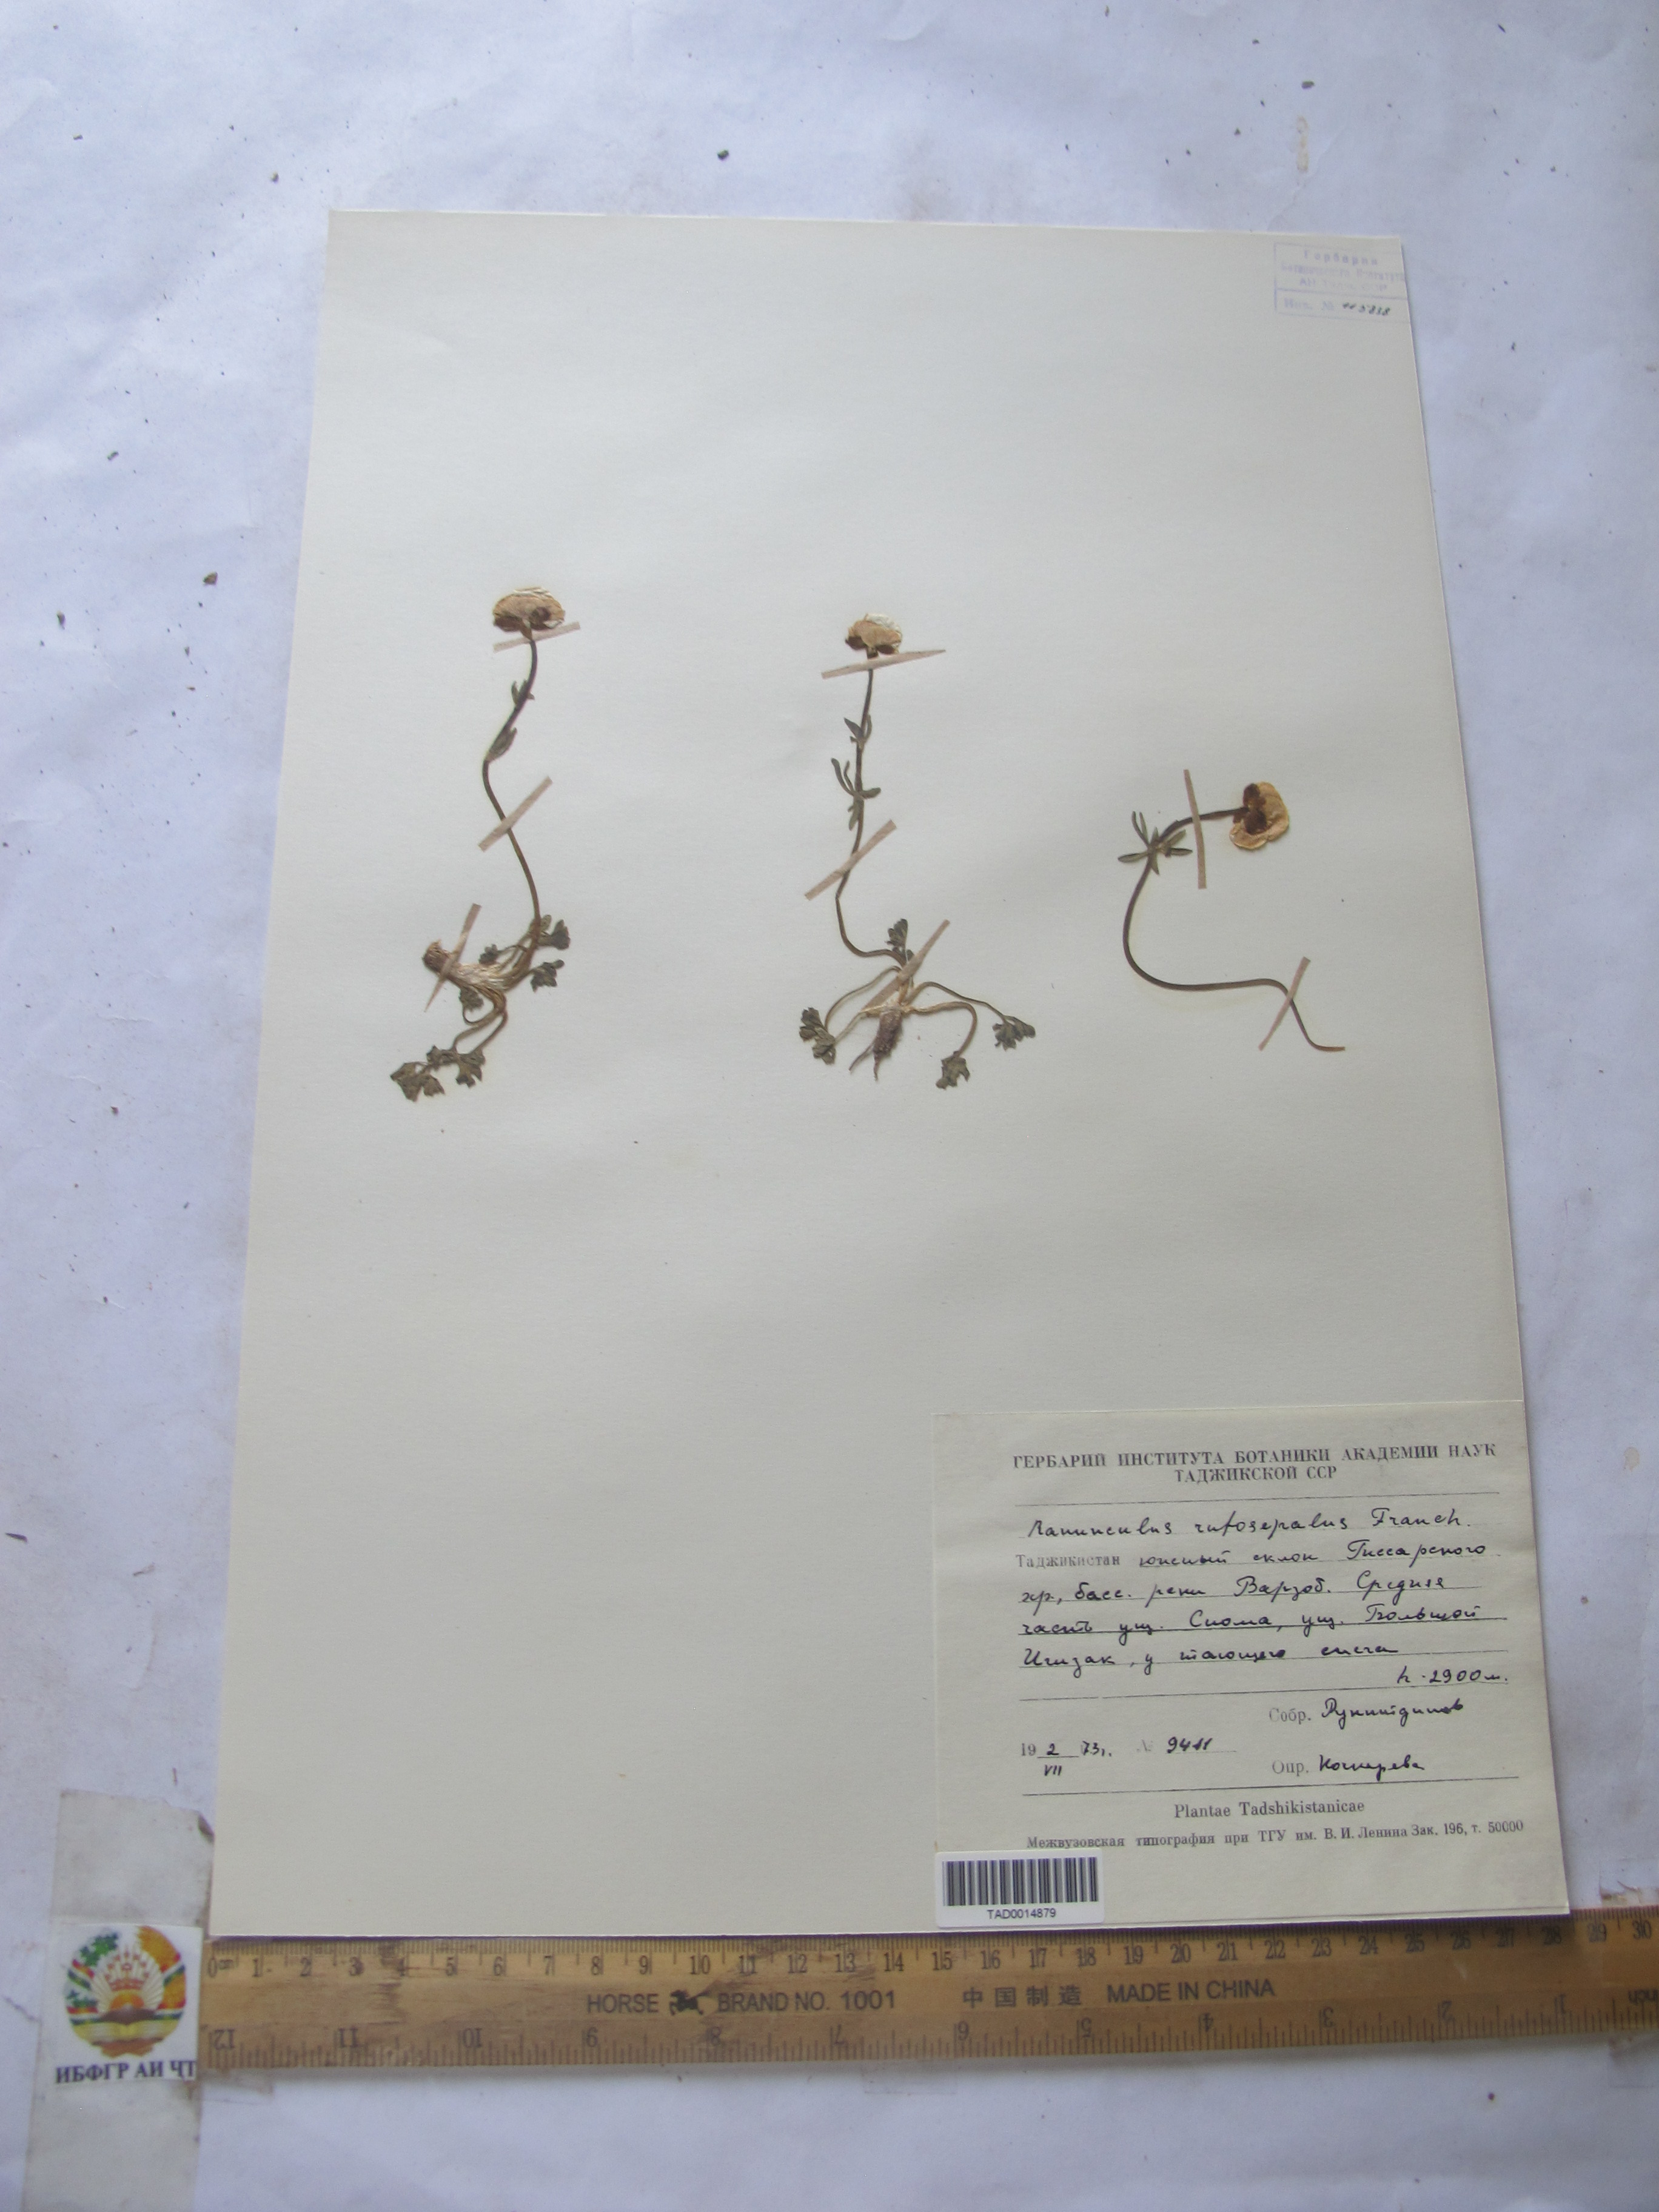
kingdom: Plantae
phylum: Tracheophyta
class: Magnoliopsida
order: Ranunculales
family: Ranunculaceae
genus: Ranunculus
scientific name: Ranunculus rufosepalus
